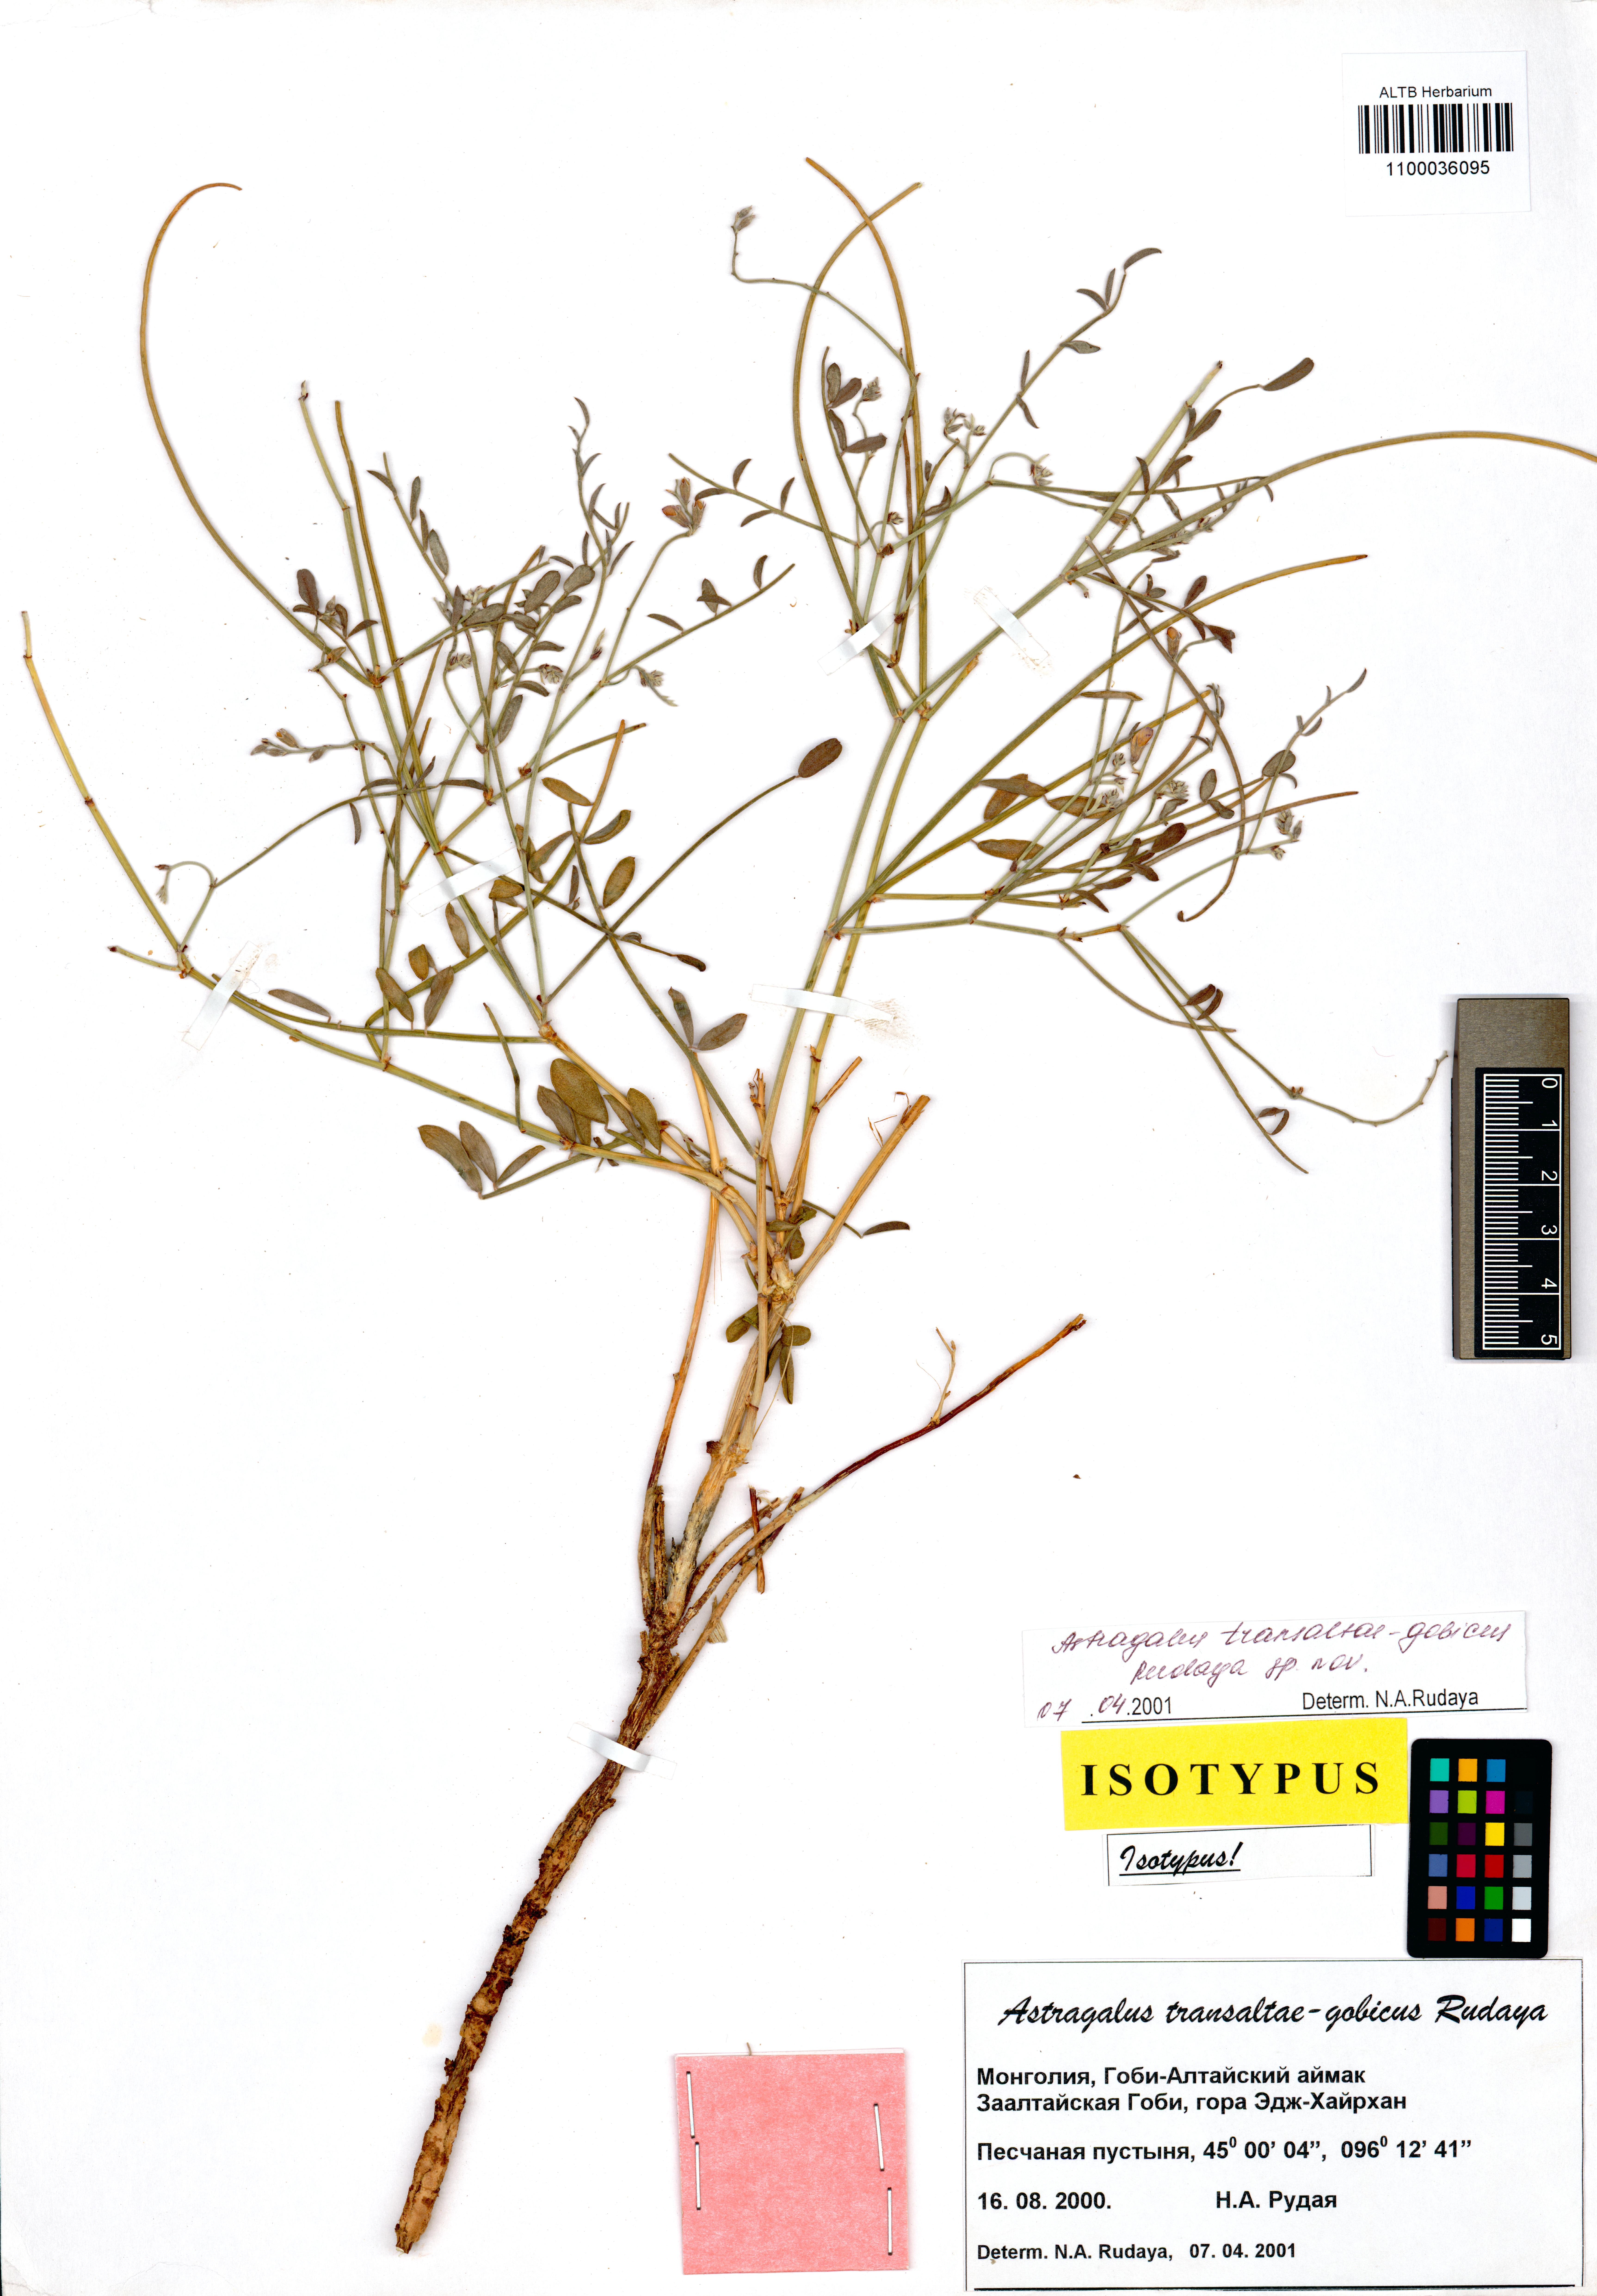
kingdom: Plantae
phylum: Tracheophyta
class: Magnoliopsida
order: Fabales
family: Fabaceae
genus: Astragalus
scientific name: Astragalus
